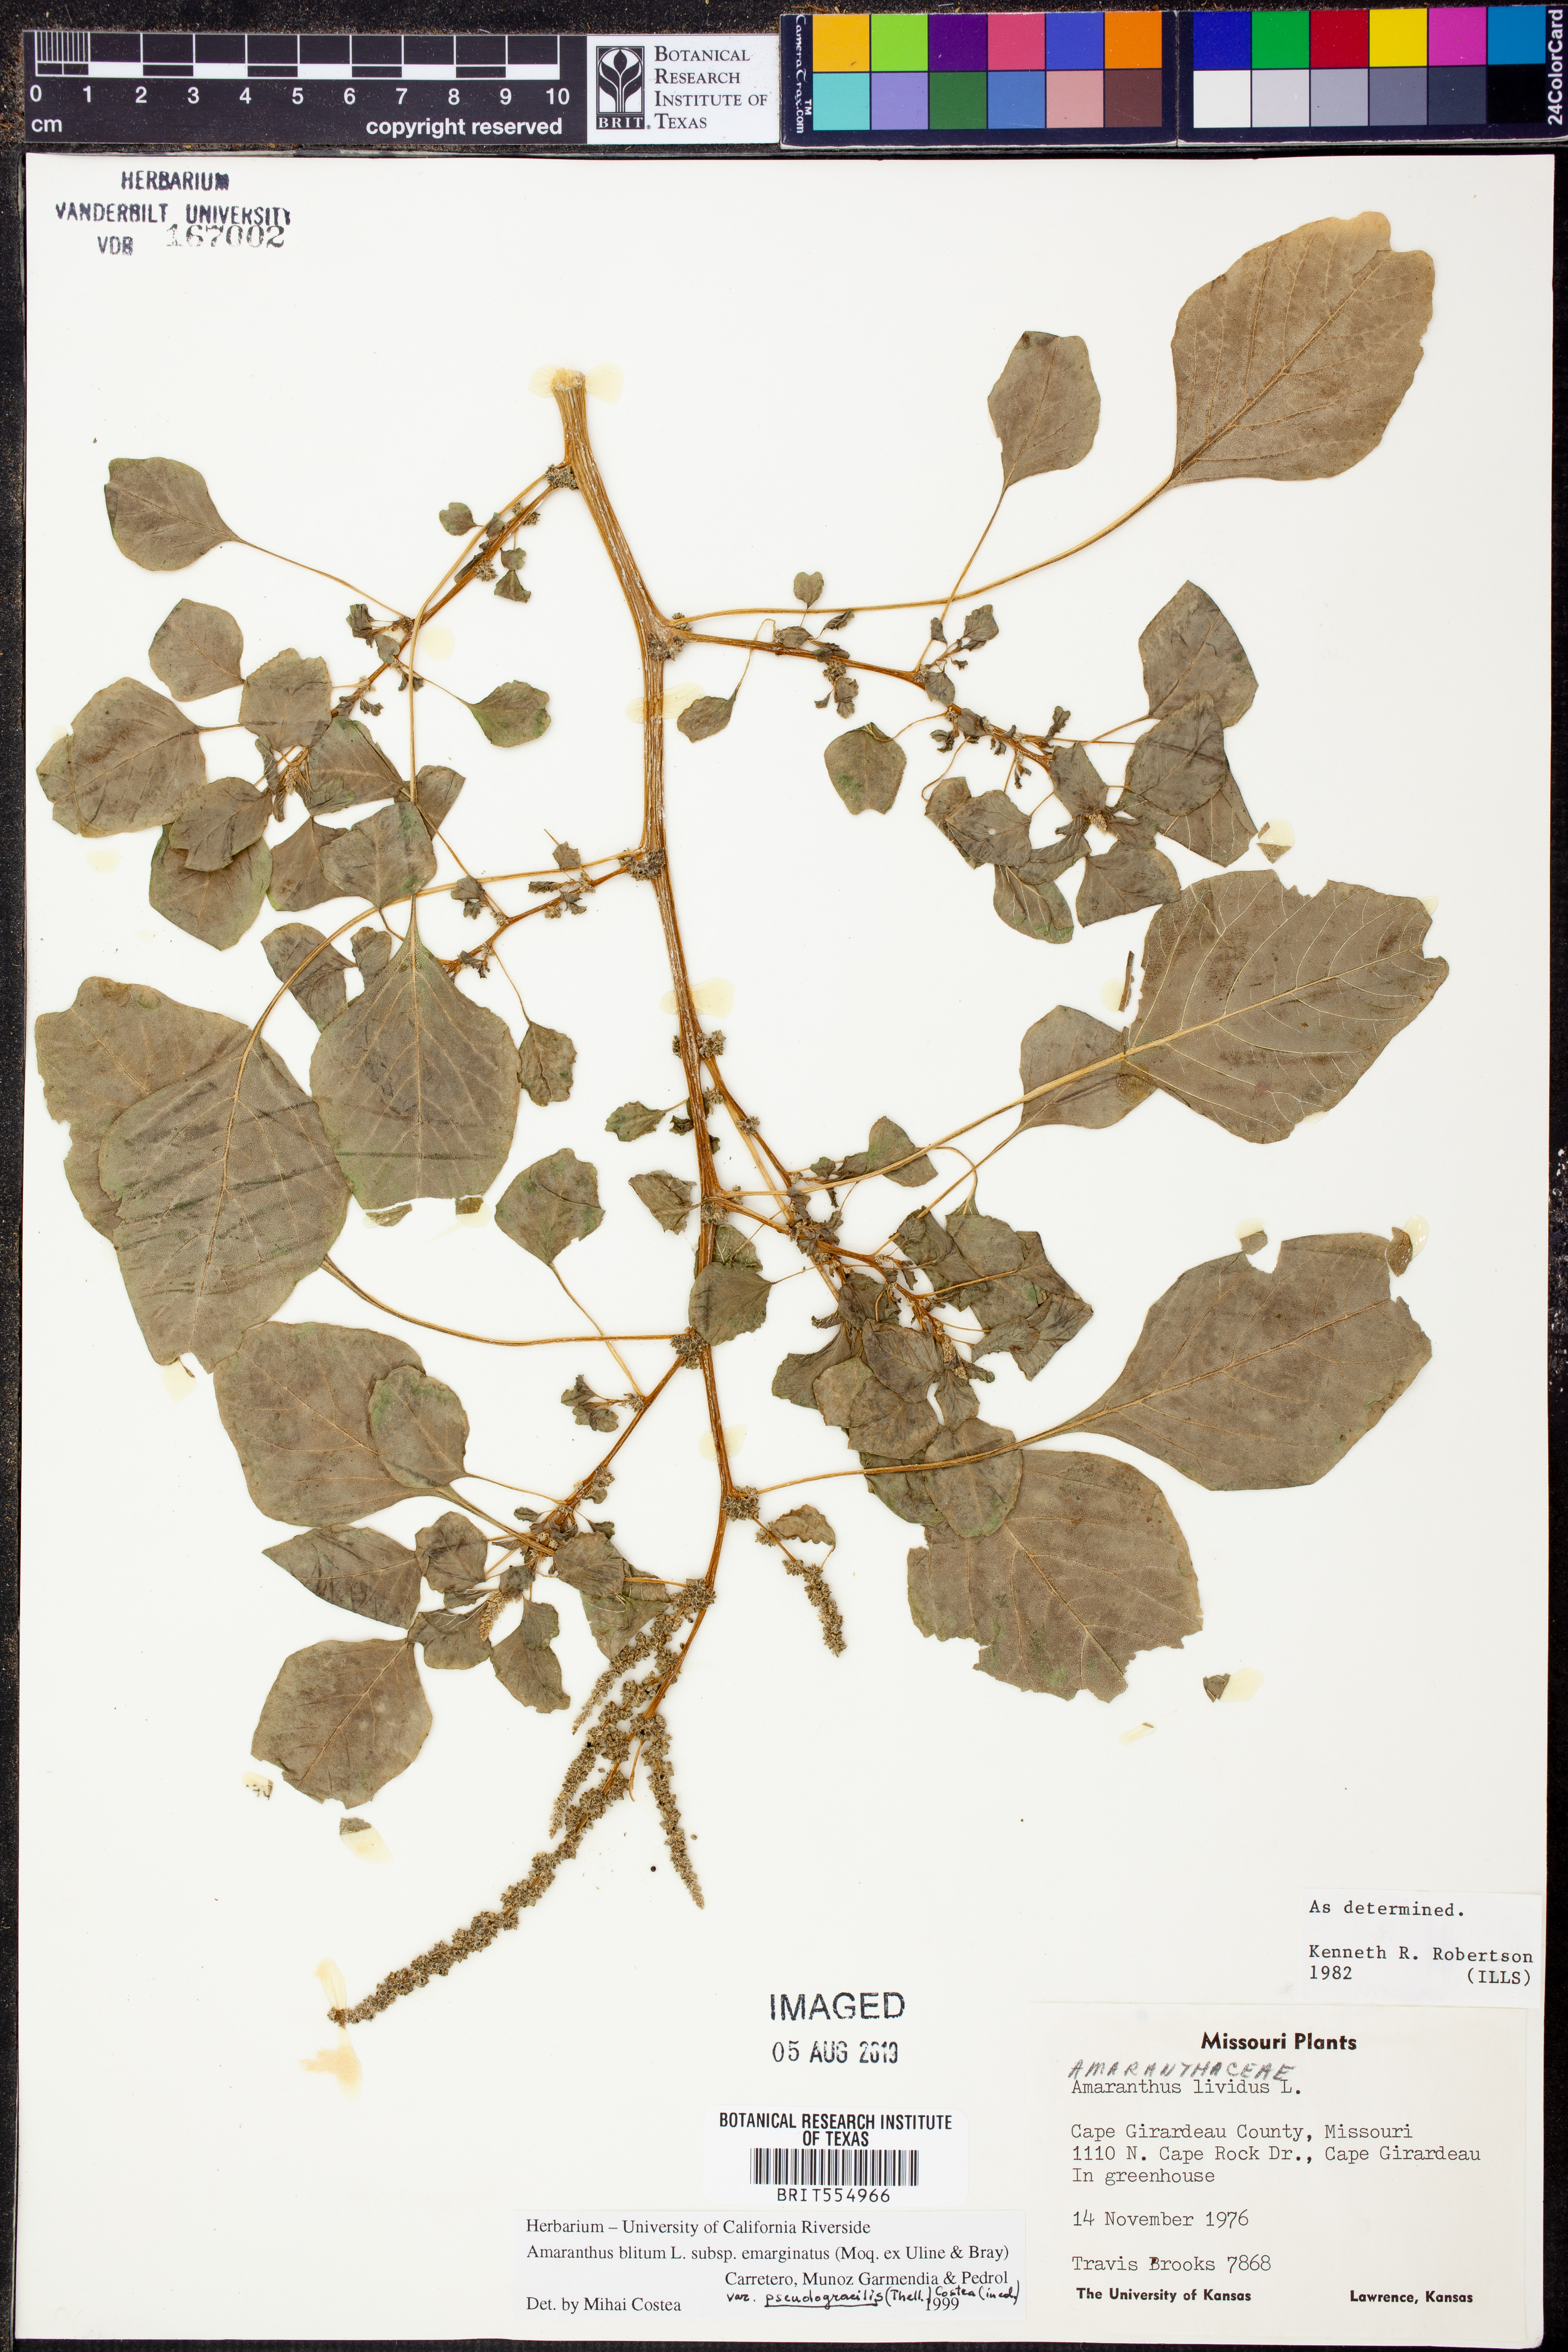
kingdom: Plantae
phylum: Tracheophyta
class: Magnoliopsida
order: Caryophyllales
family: Amaranthaceae
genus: Amaranthus
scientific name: Amaranthus emarginatus
